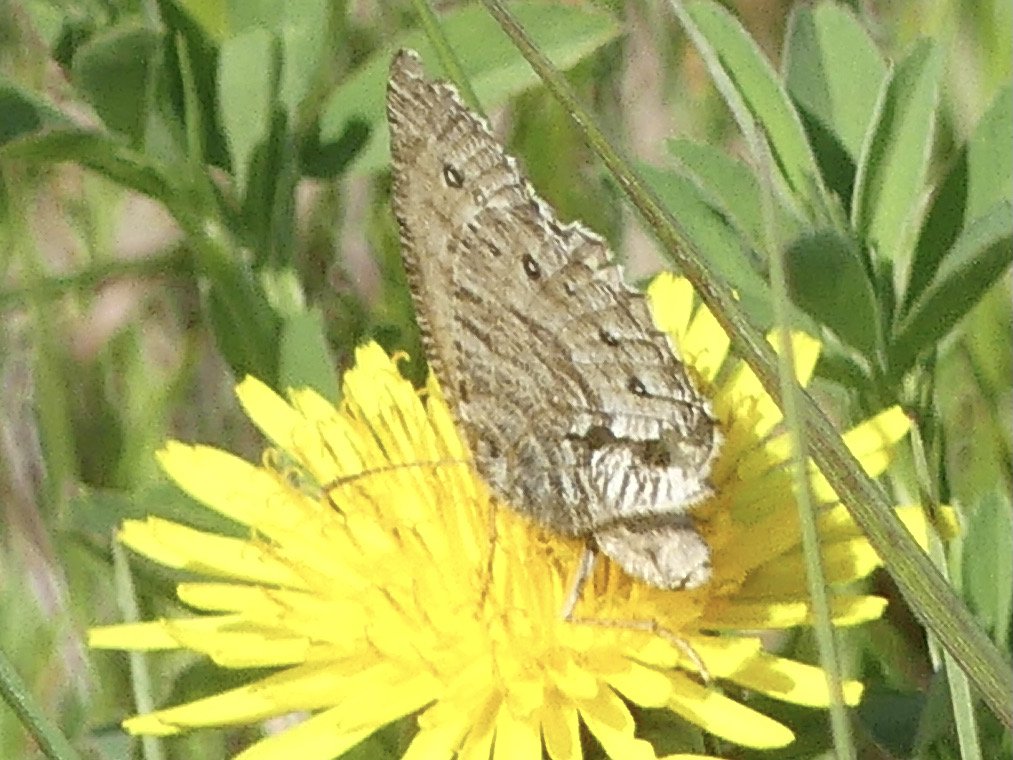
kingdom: Animalia
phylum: Arthropoda
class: Insecta
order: Lepidoptera
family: Nymphalidae
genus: Oeneis
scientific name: Oeneis uhleri
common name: Uhler's Arctic
